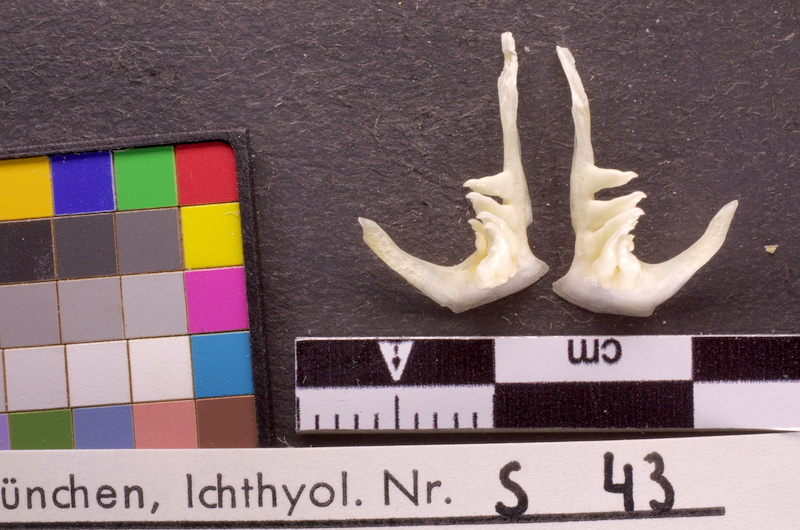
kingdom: Animalia
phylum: Chordata
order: Cypriniformes
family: Cyprinidae
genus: Alburnus
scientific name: Alburnus mento
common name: Seelaube
